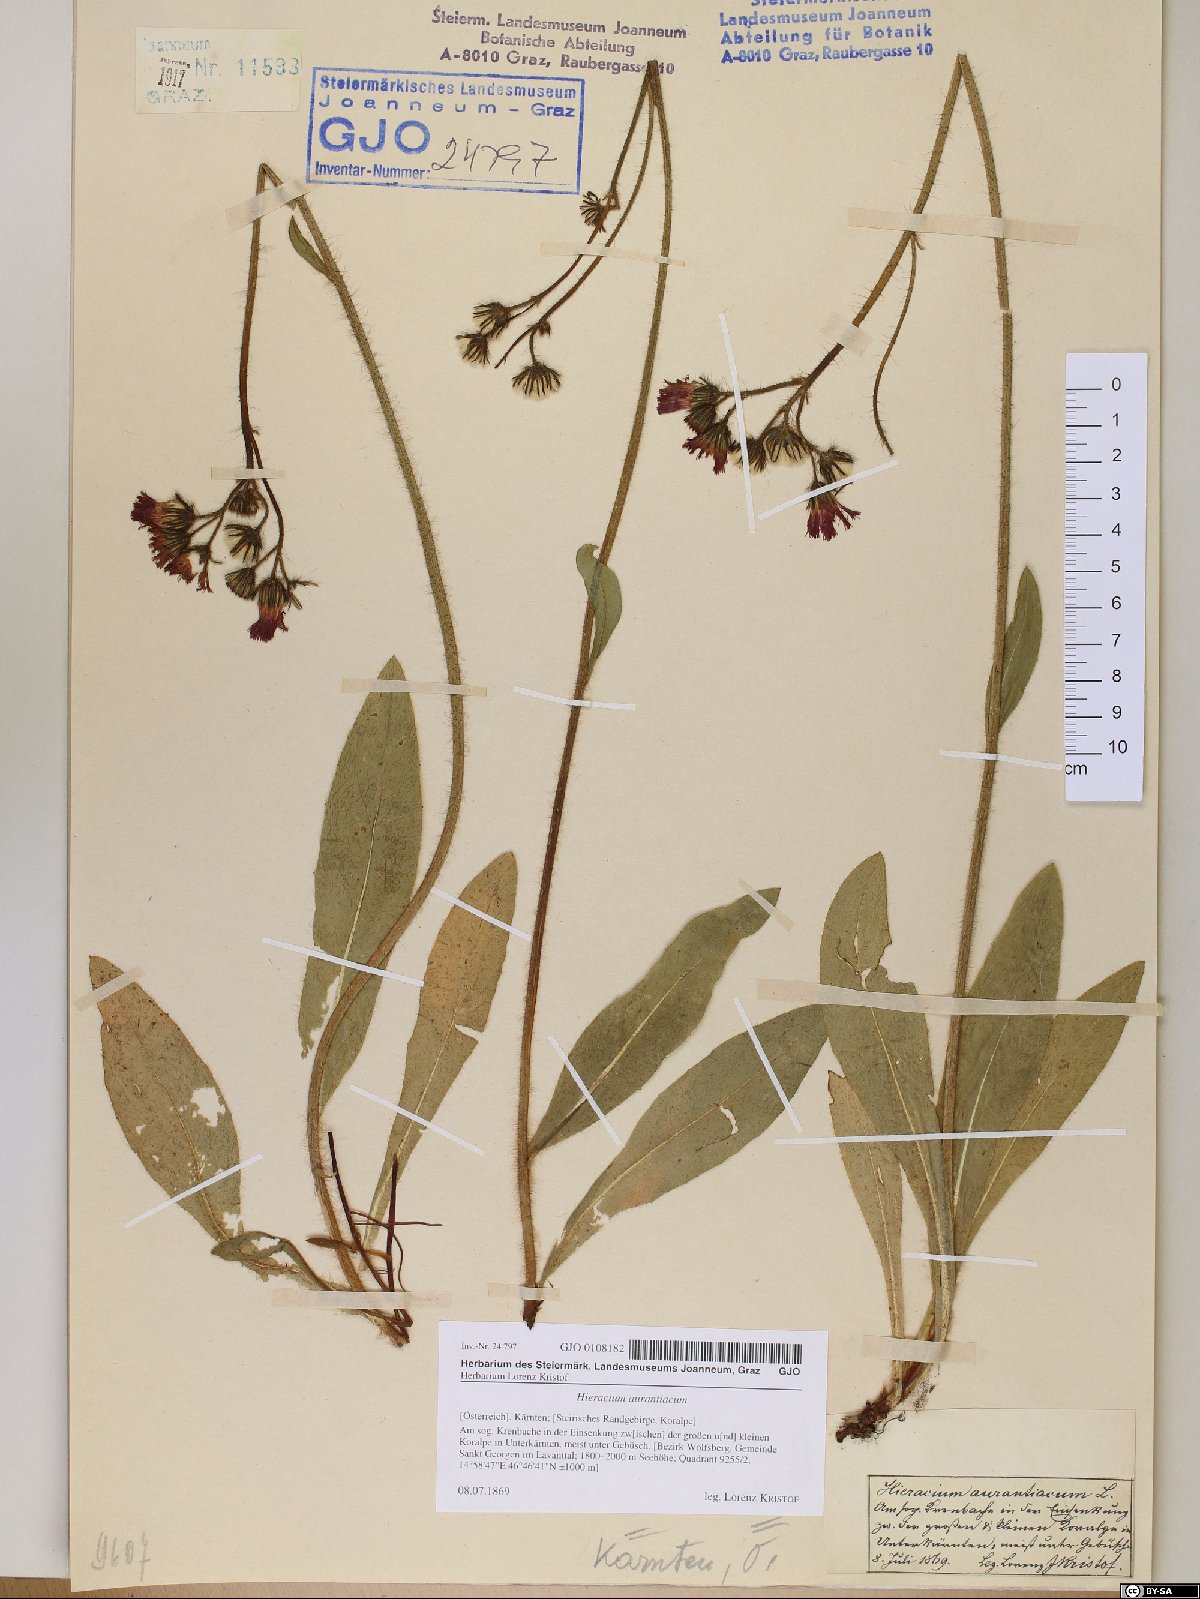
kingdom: Plantae
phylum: Tracheophyta
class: Magnoliopsida
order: Asterales
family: Asteraceae
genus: Pilosella
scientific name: Pilosella aurantiaca
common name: Fox-and-cubs
